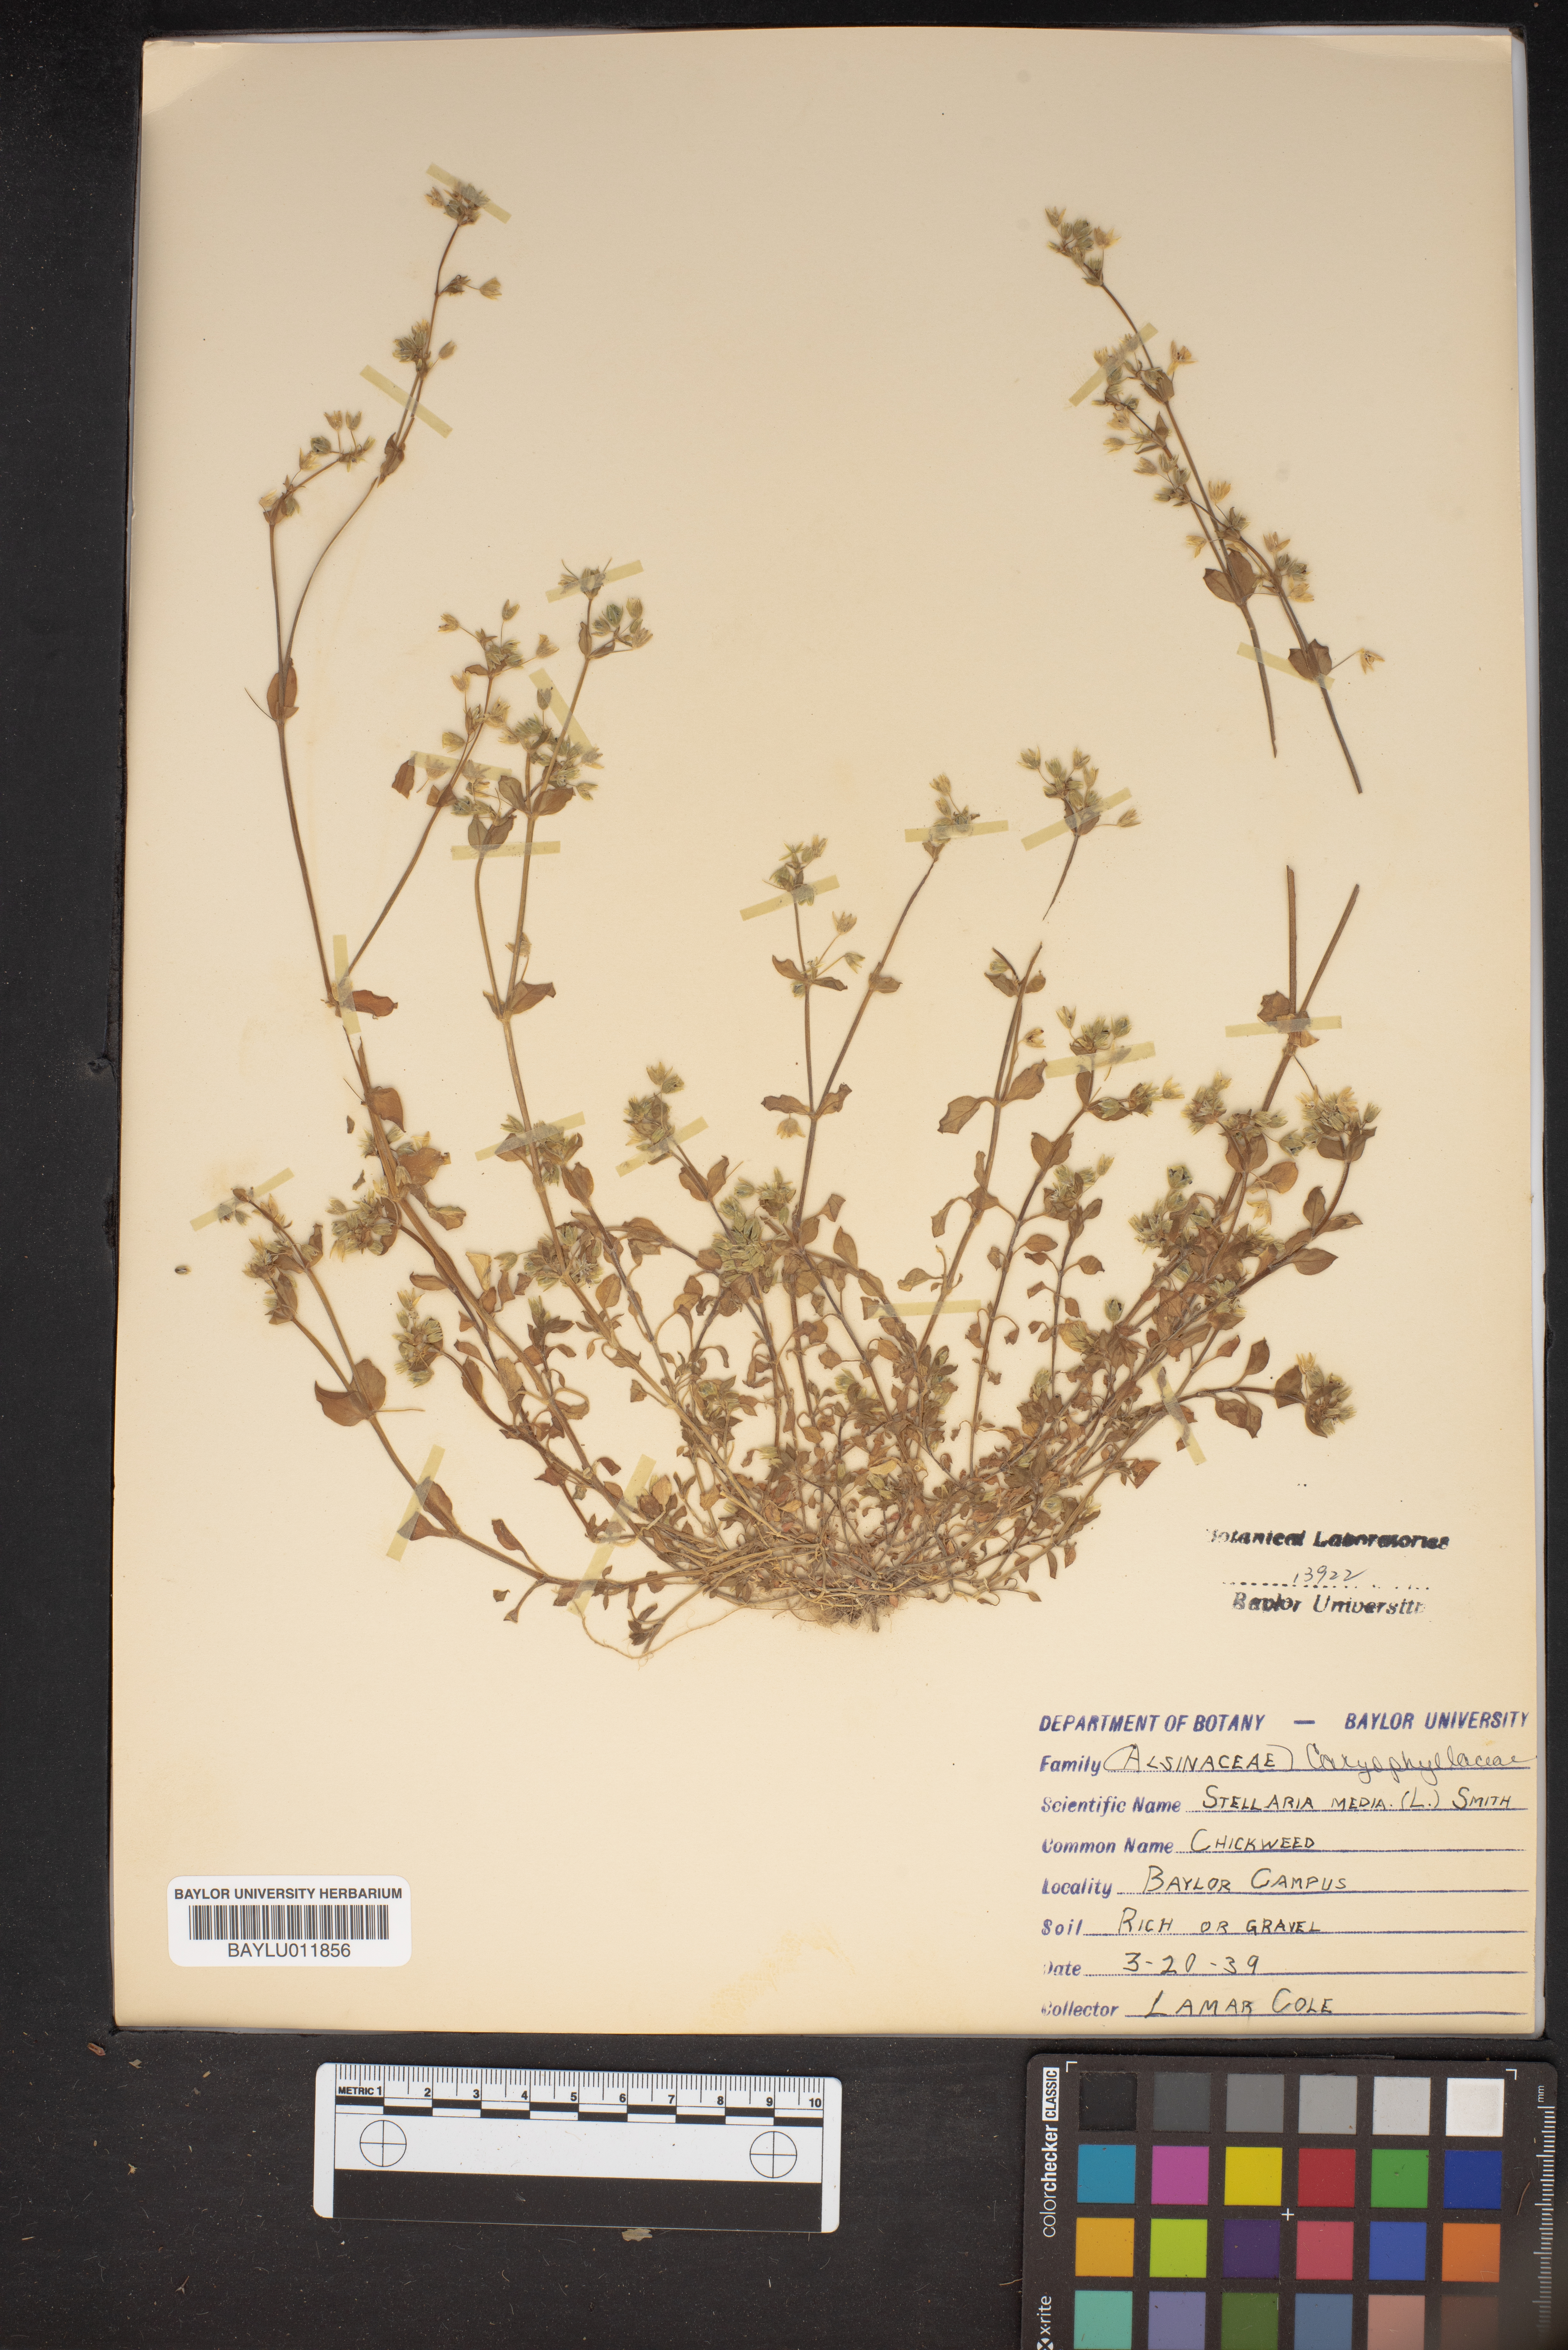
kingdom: Plantae
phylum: Tracheophyta
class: Magnoliopsida
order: Caryophyllales
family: Caryophyllaceae
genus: Stellaria
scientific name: Stellaria media
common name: Common chickweed
